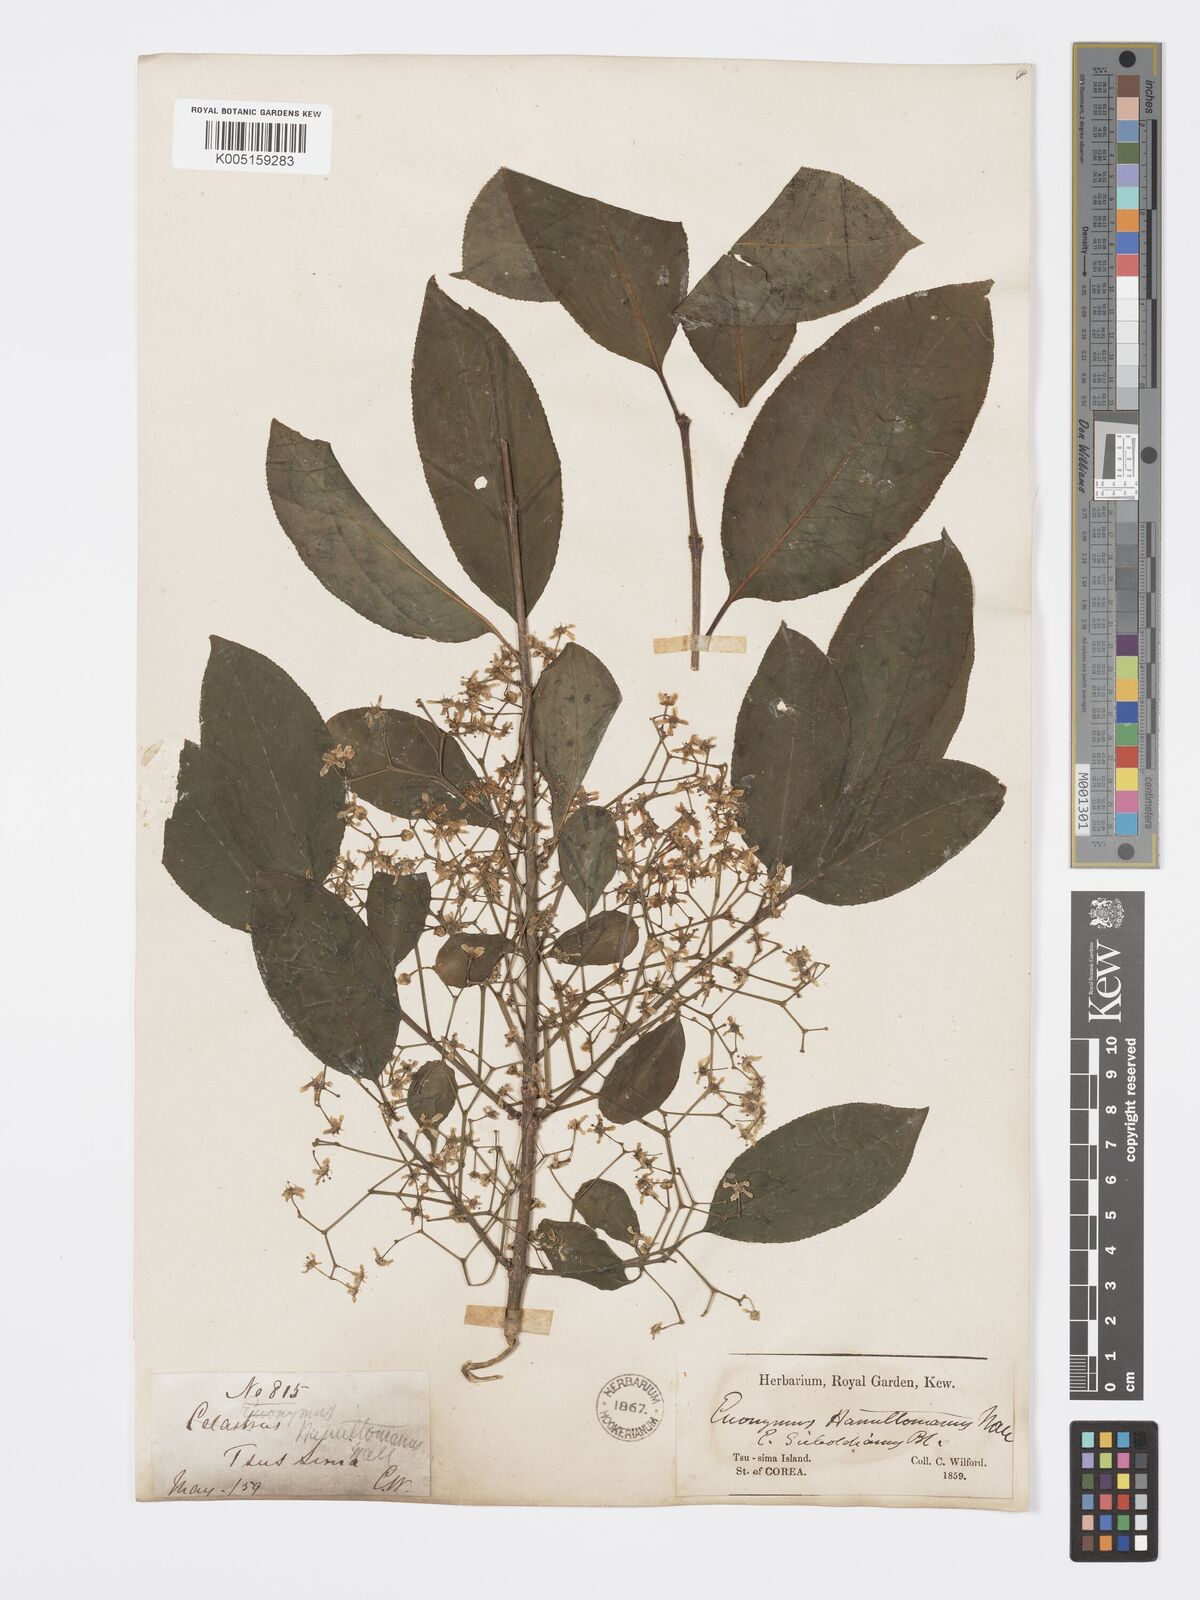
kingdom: Plantae
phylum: Tracheophyta
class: Magnoliopsida
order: Celastrales
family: Celastraceae
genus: Euonymus
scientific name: Euonymus hamiltonianus
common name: Hamilton's spindletree
